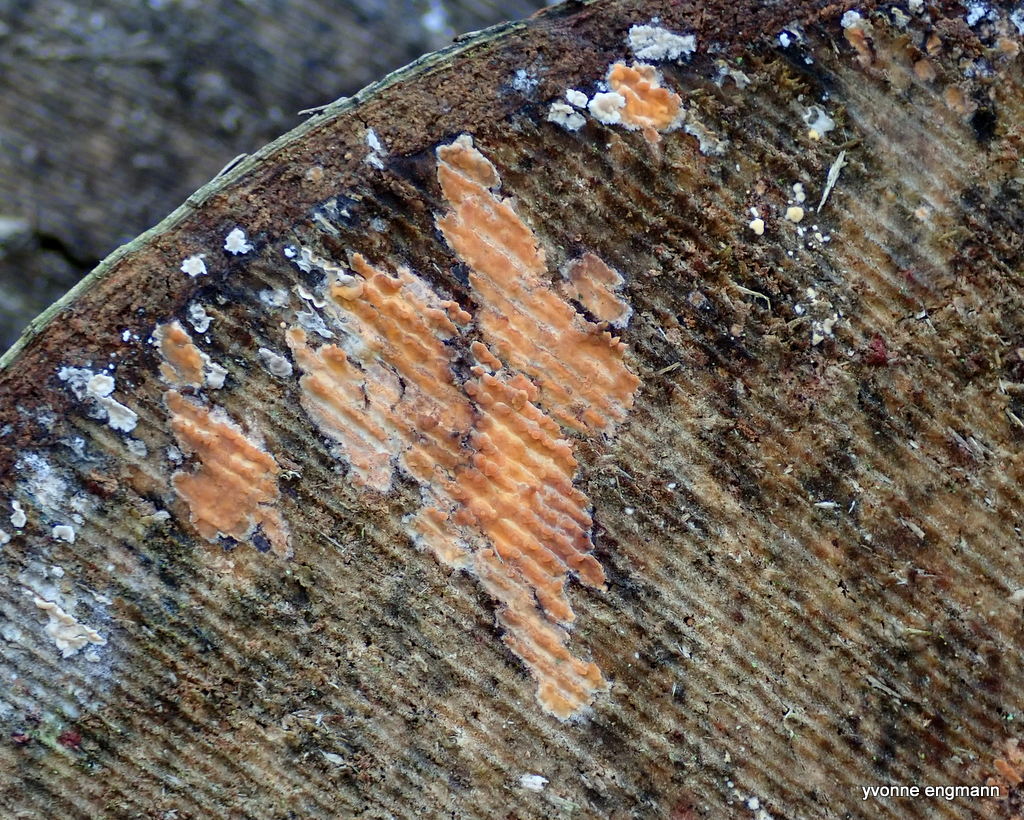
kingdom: Fungi
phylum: Basidiomycota
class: Agaricomycetes
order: Russulales
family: Peniophoraceae
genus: Peniophora
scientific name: Peniophora incarnata
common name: laksefarvet voksskind
